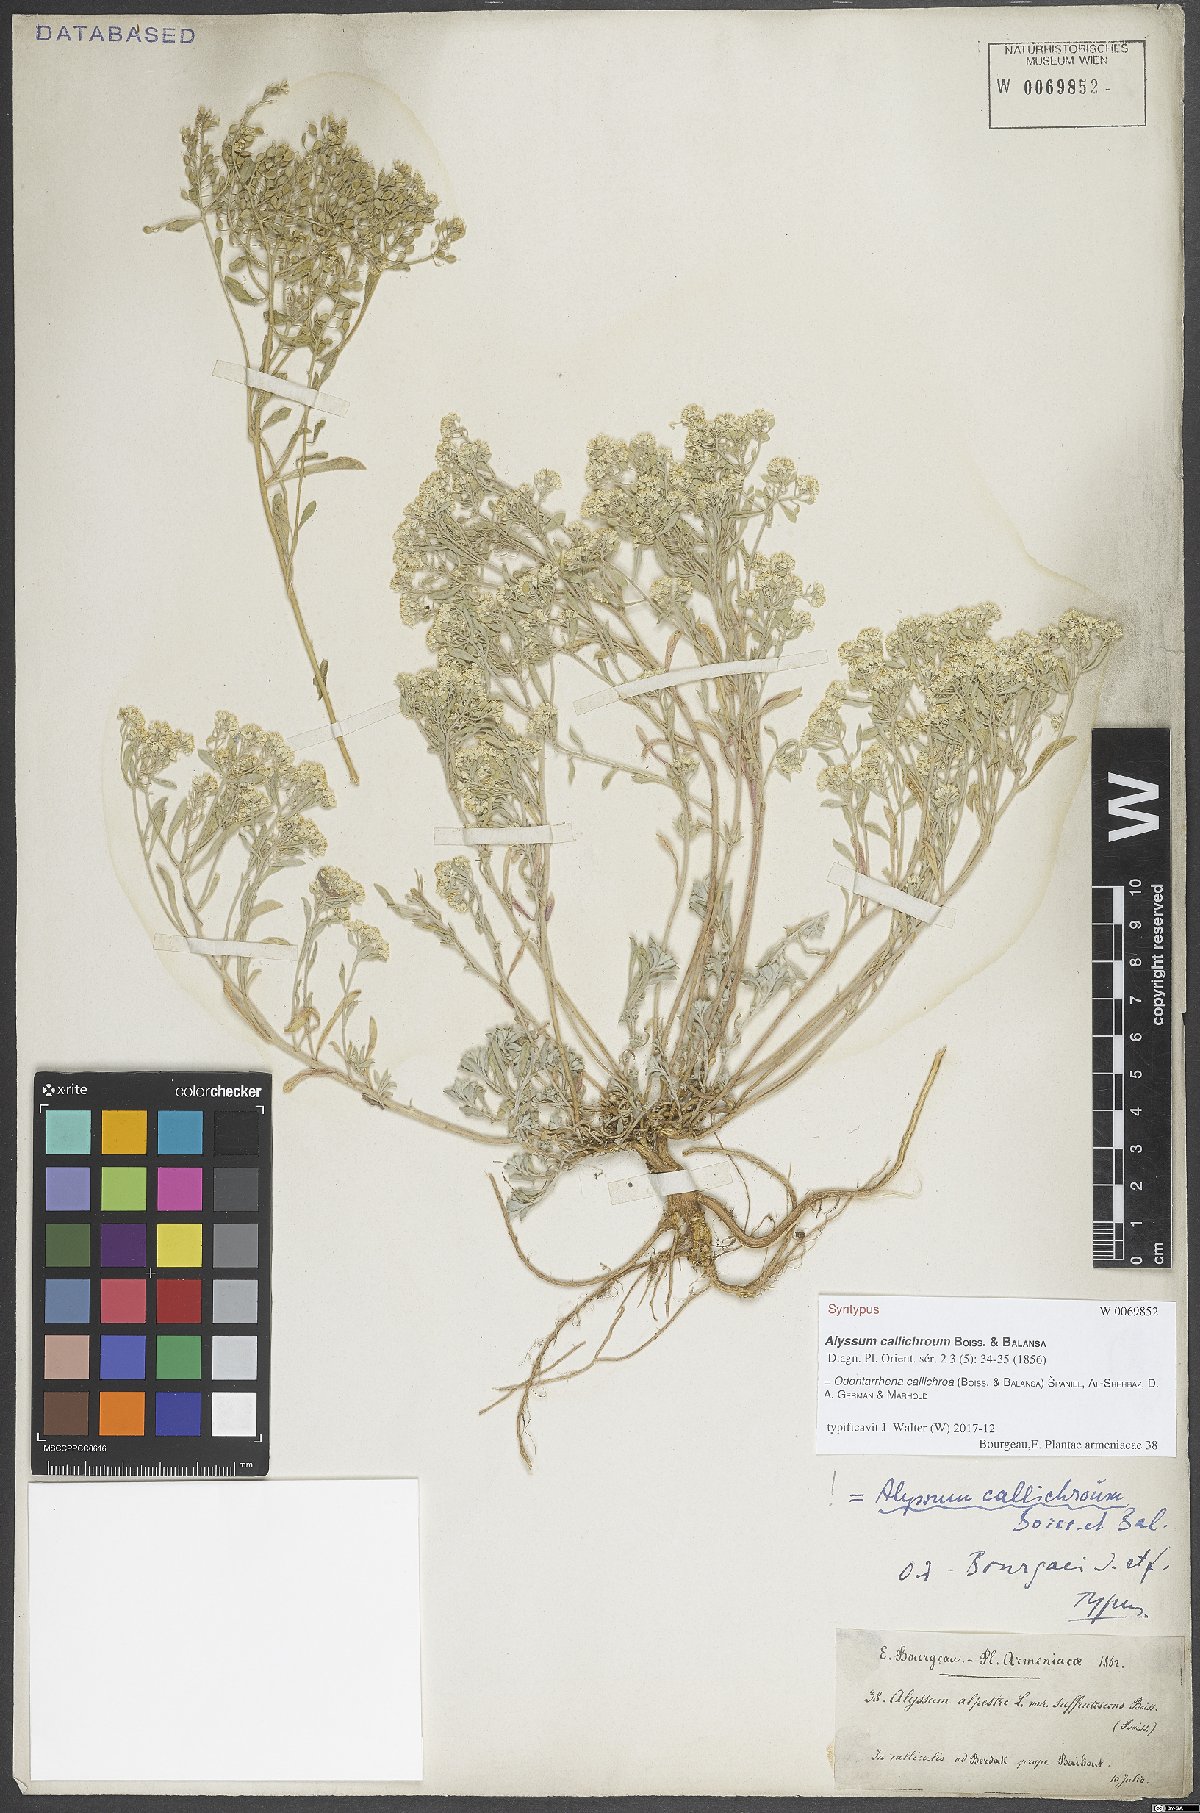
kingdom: Plantae
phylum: Tracheophyta
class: Magnoliopsida
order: Brassicales
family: Brassicaceae
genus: Odontarrhena
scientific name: Odontarrhena callichroa
